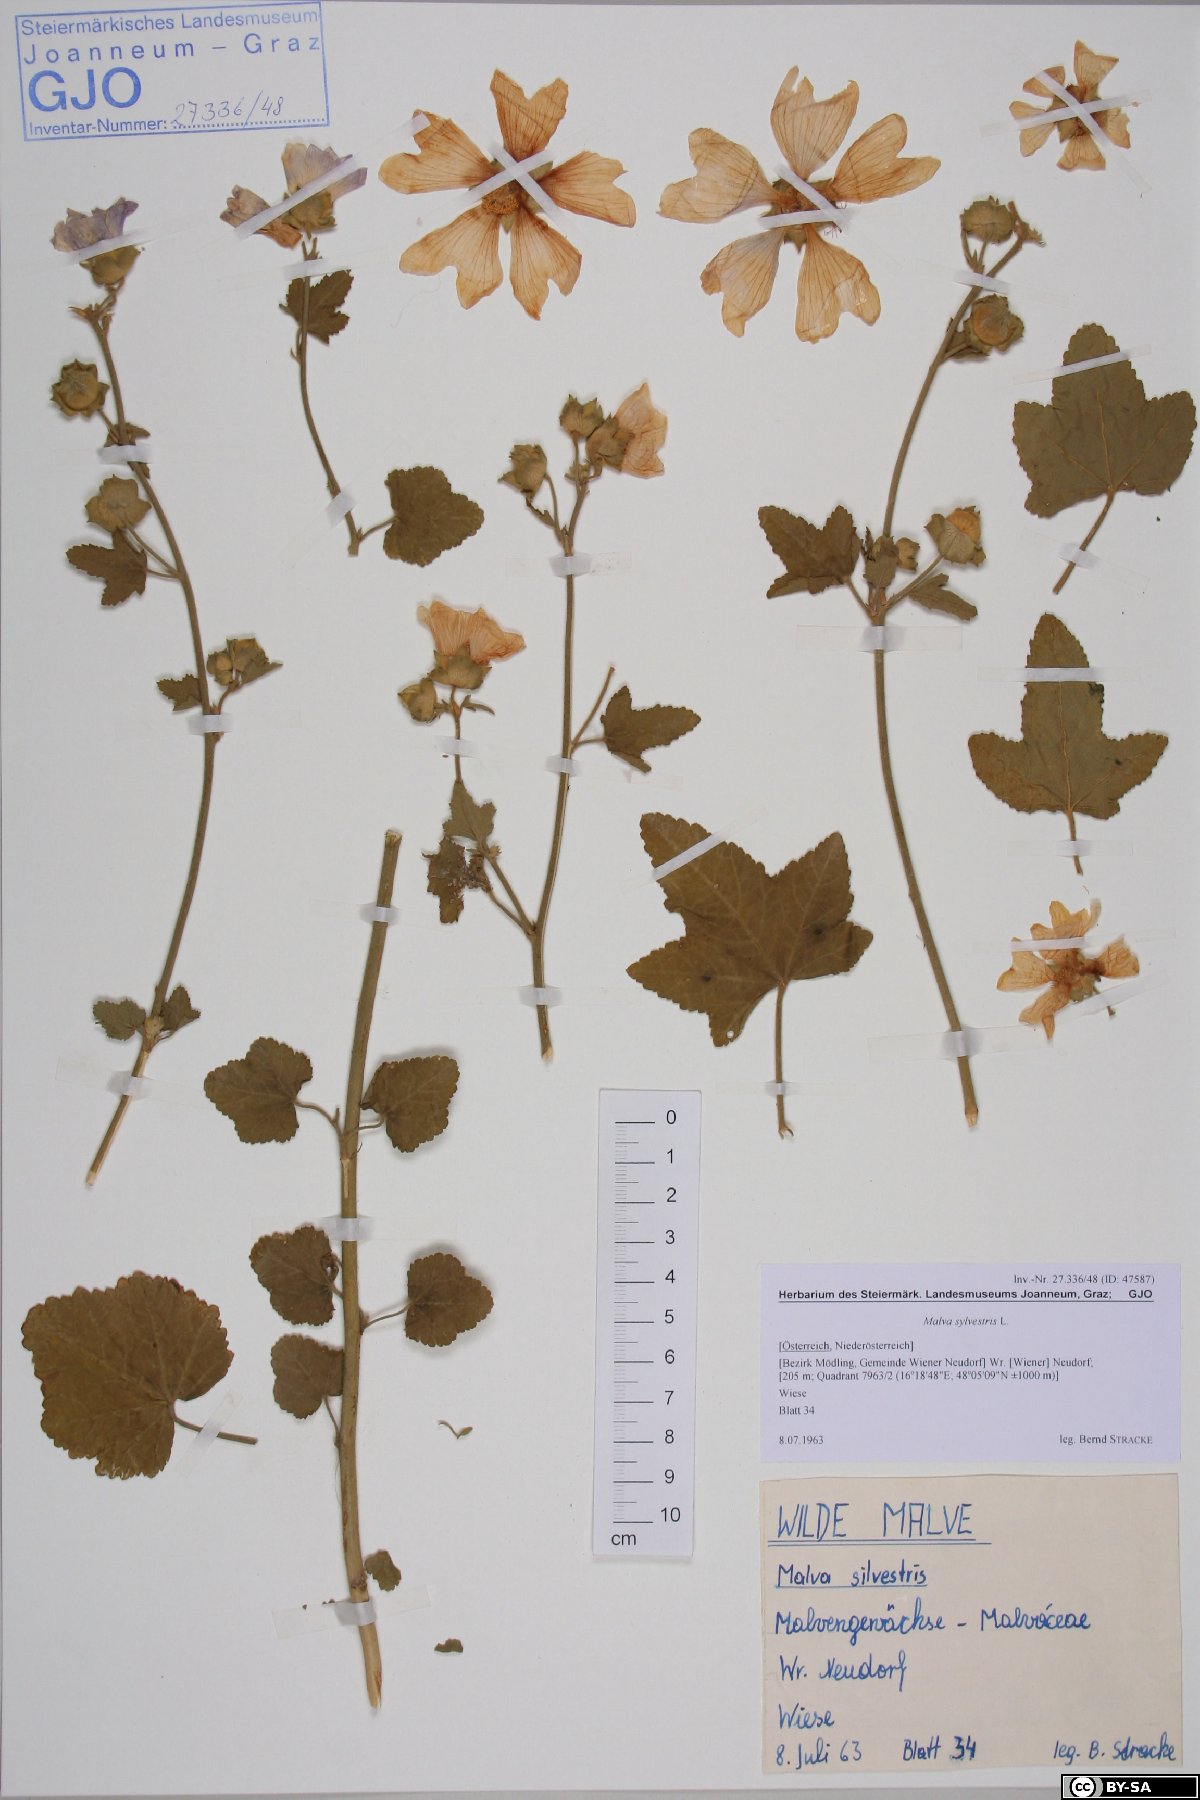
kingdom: Plantae
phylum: Tracheophyta
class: Magnoliopsida
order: Malvales
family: Malvaceae
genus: Malva
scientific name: Malva thuringiaca
